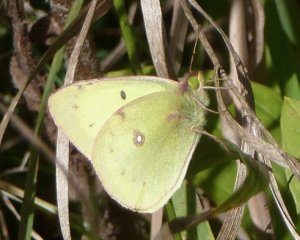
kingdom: Animalia
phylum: Arthropoda
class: Insecta
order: Lepidoptera
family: Pieridae
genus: Colias
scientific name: Colias philodice
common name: Clouded Sulphur
